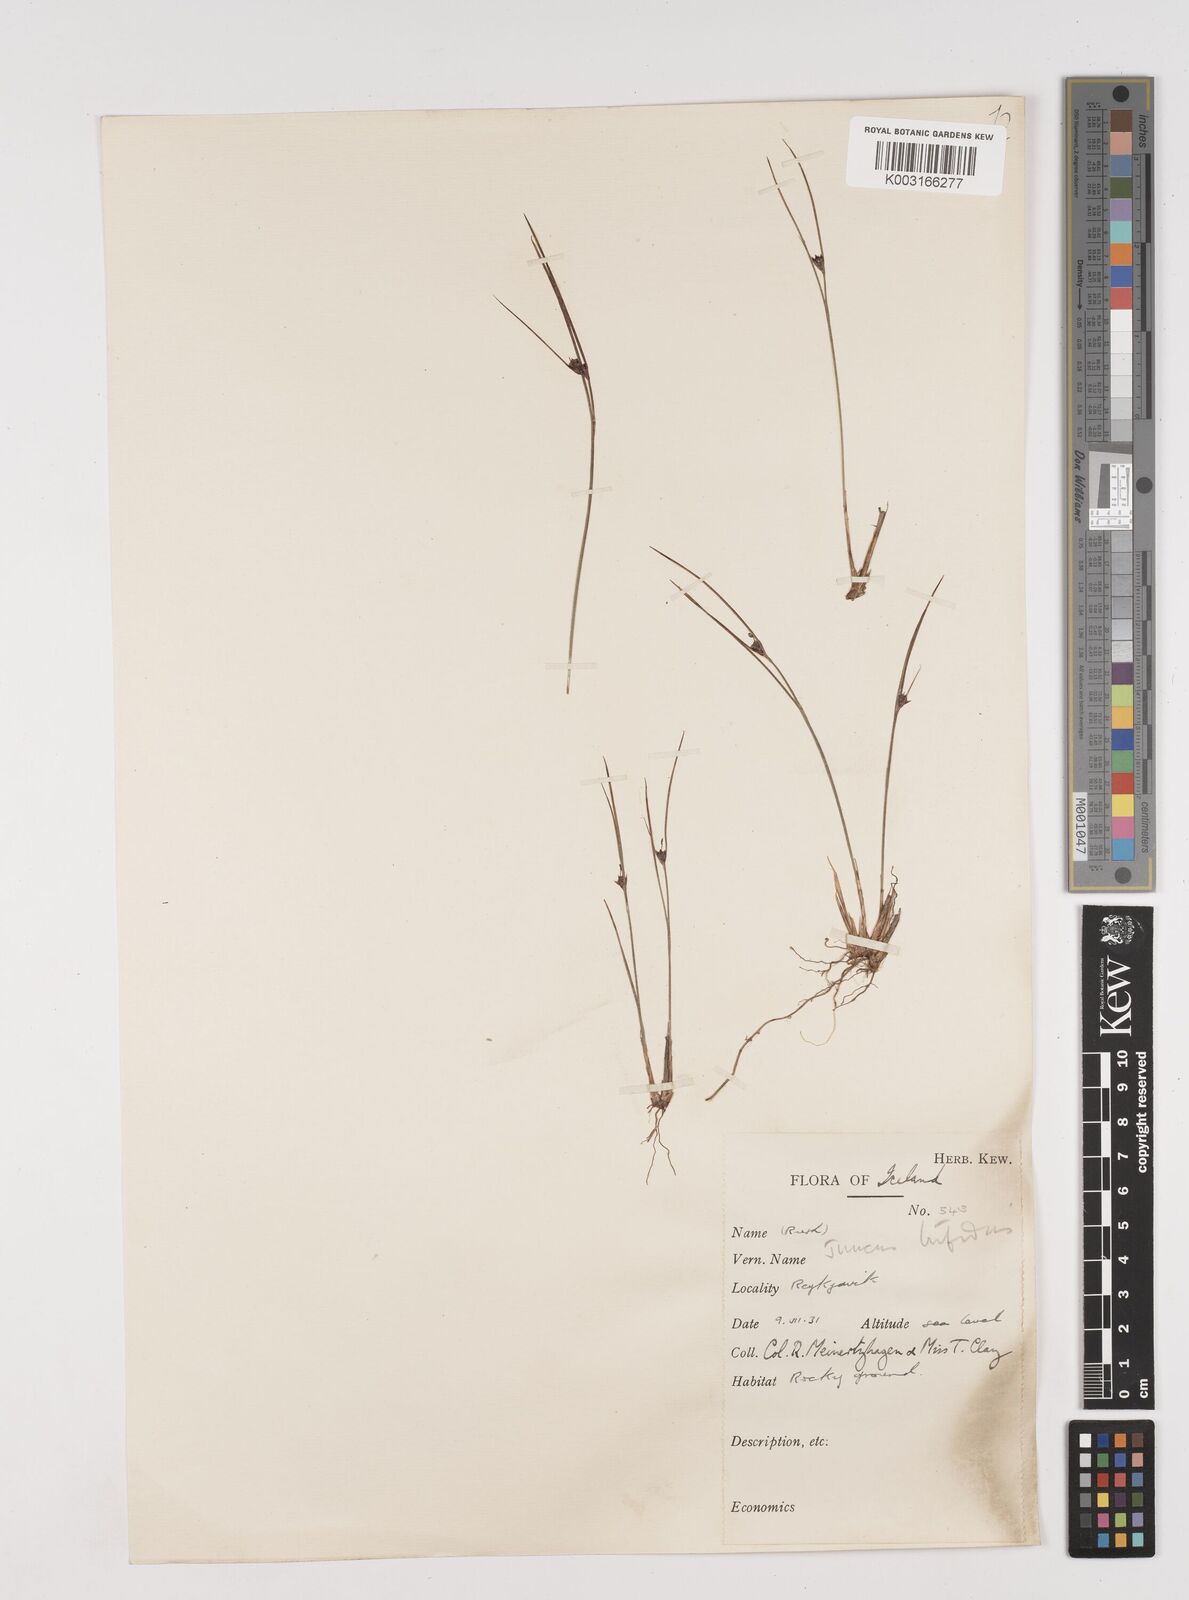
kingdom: Plantae
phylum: Tracheophyta
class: Liliopsida
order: Poales
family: Juncaceae
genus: Oreojuncus
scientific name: Oreojuncus trifidus
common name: Highland rush
